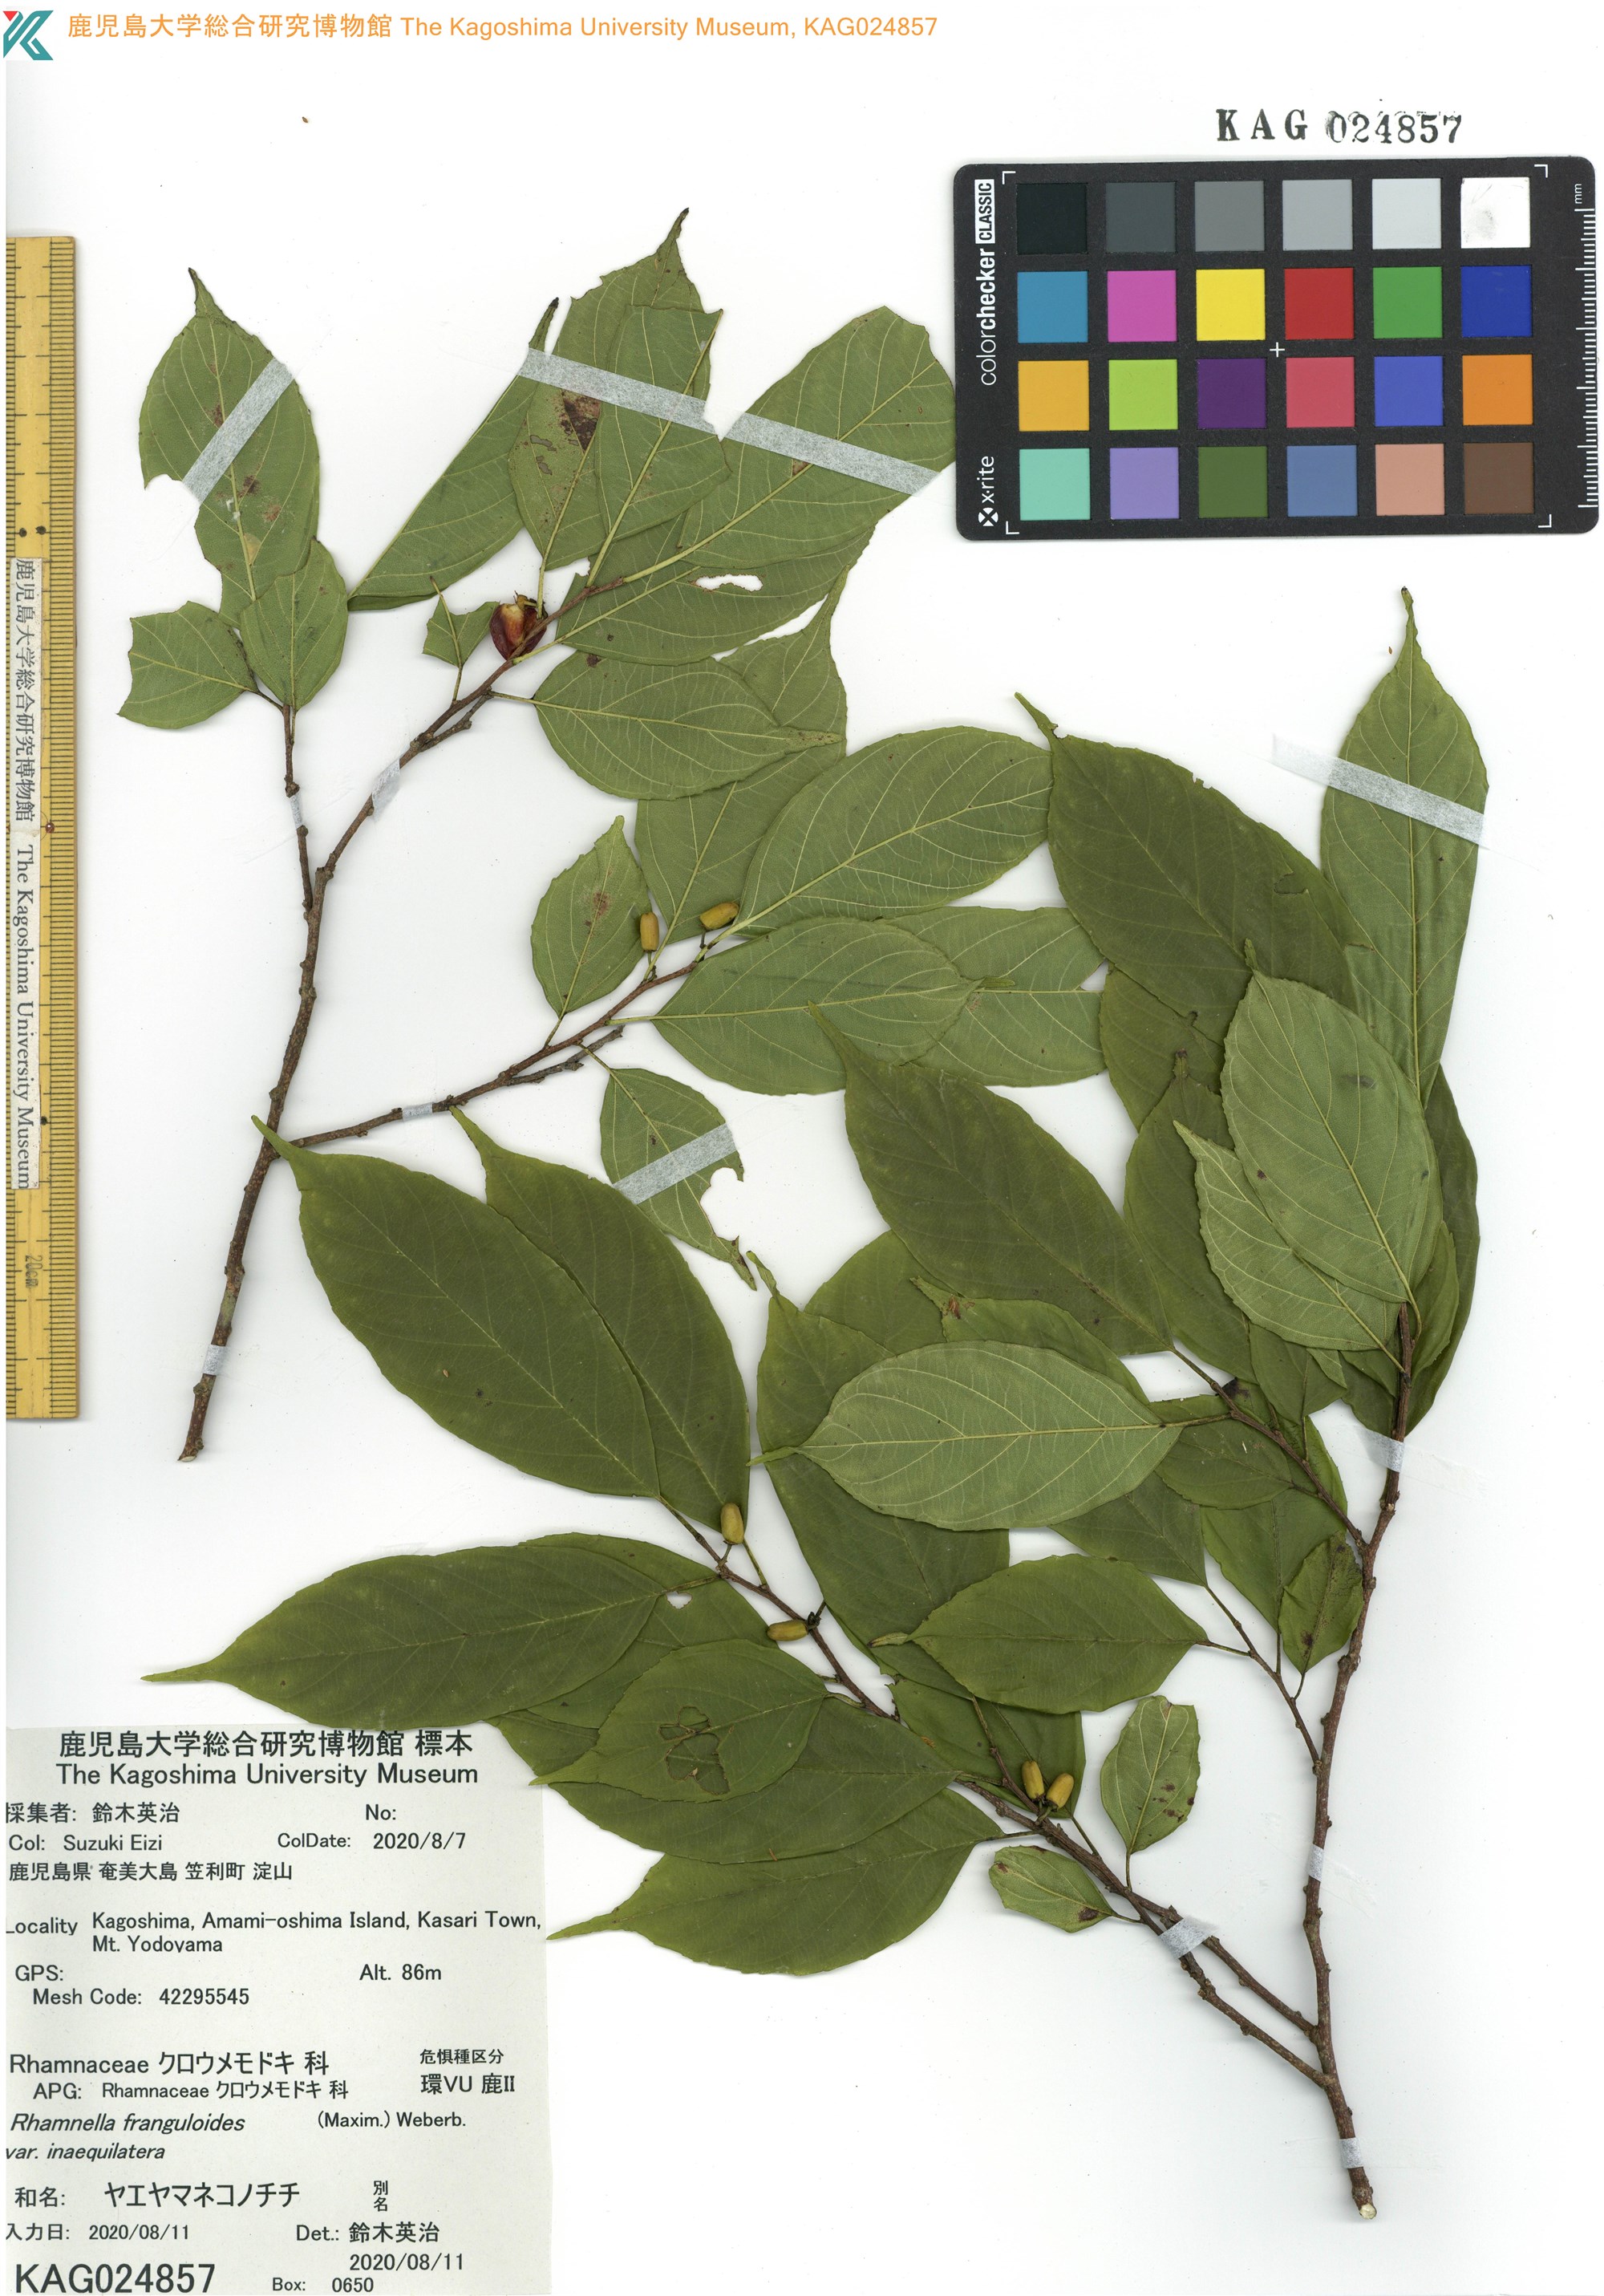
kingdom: Plantae
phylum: Tracheophyta
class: Magnoliopsida
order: Rosales
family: Rhamnaceae
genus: Rhamnella
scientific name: Rhamnella franguloides
